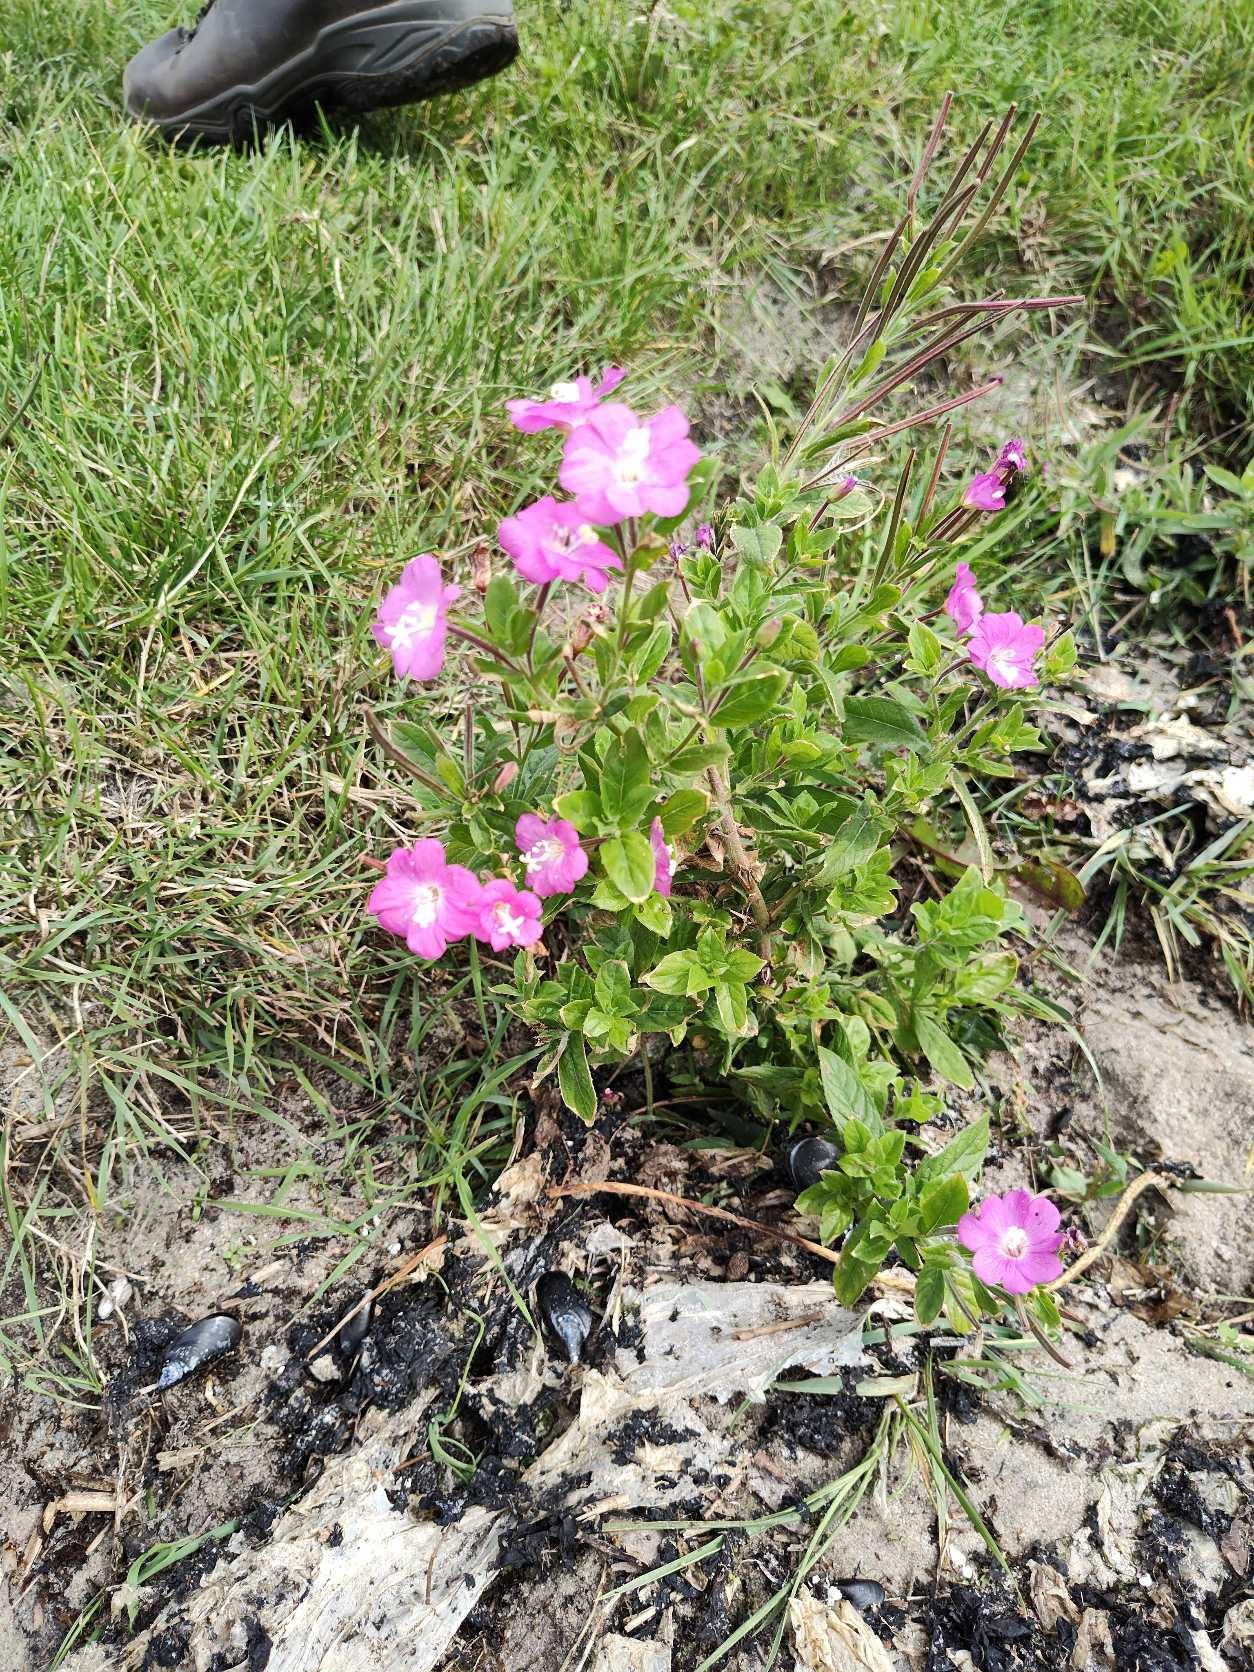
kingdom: Plantae
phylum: Tracheophyta
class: Magnoliopsida
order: Myrtales
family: Onagraceae
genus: Epilobium
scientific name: Epilobium hirsutum
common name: Lådden dueurt
